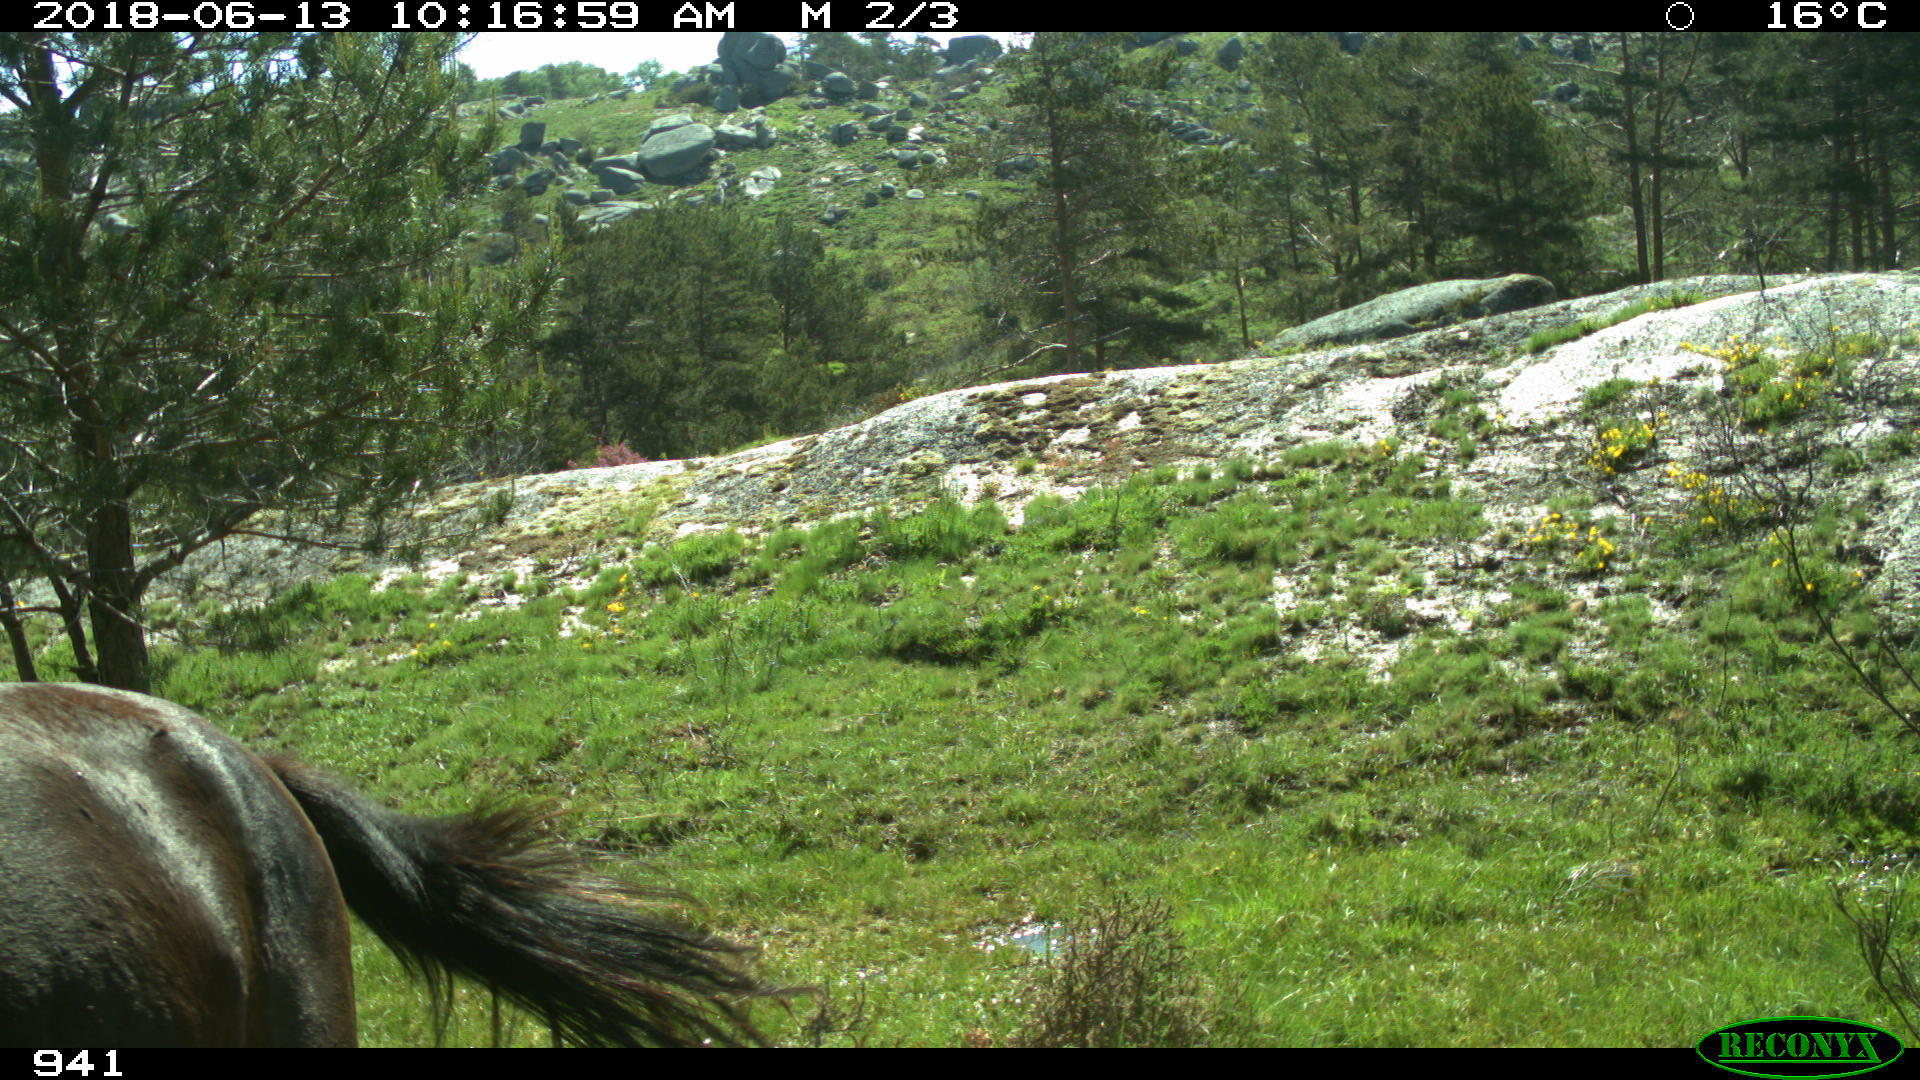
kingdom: Animalia
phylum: Chordata
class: Mammalia
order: Perissodactyla
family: Equidae
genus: Equus
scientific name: Equus caballus
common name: Horse
